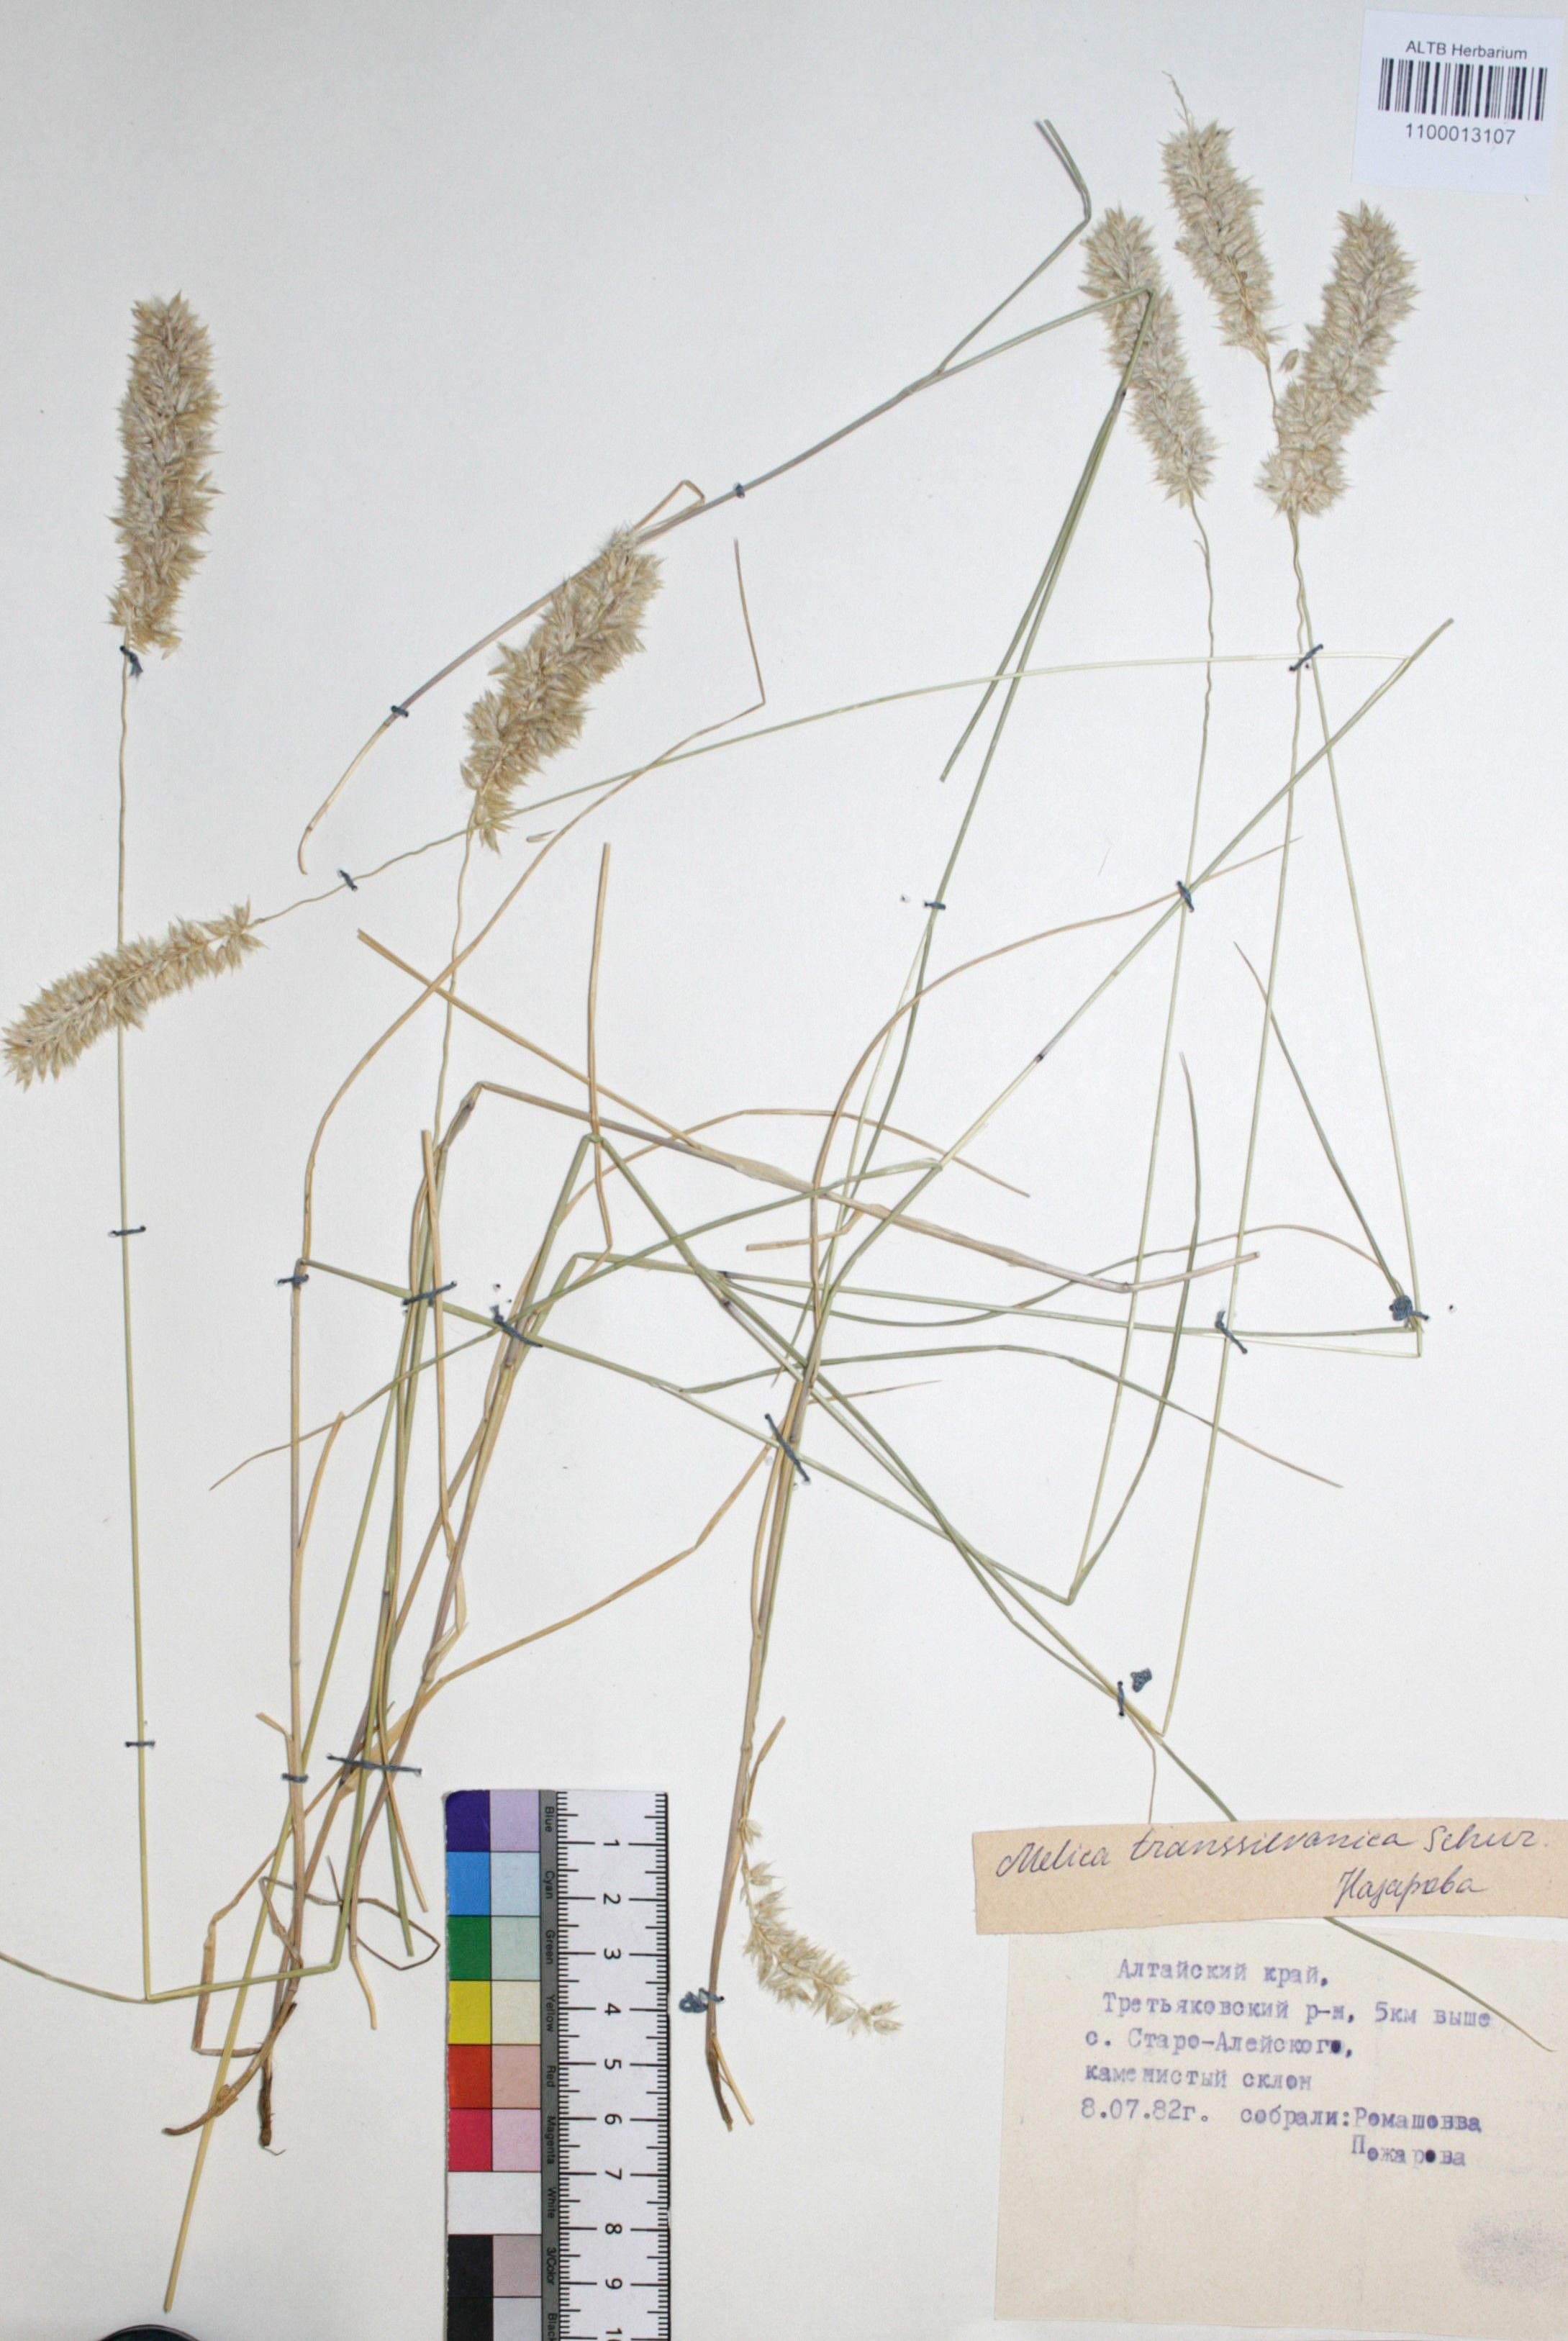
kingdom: Plantae
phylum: Tracheophyta
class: Liliopsida
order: Poales
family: Poaceae
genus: Melica
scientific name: Melica transsilvanica
